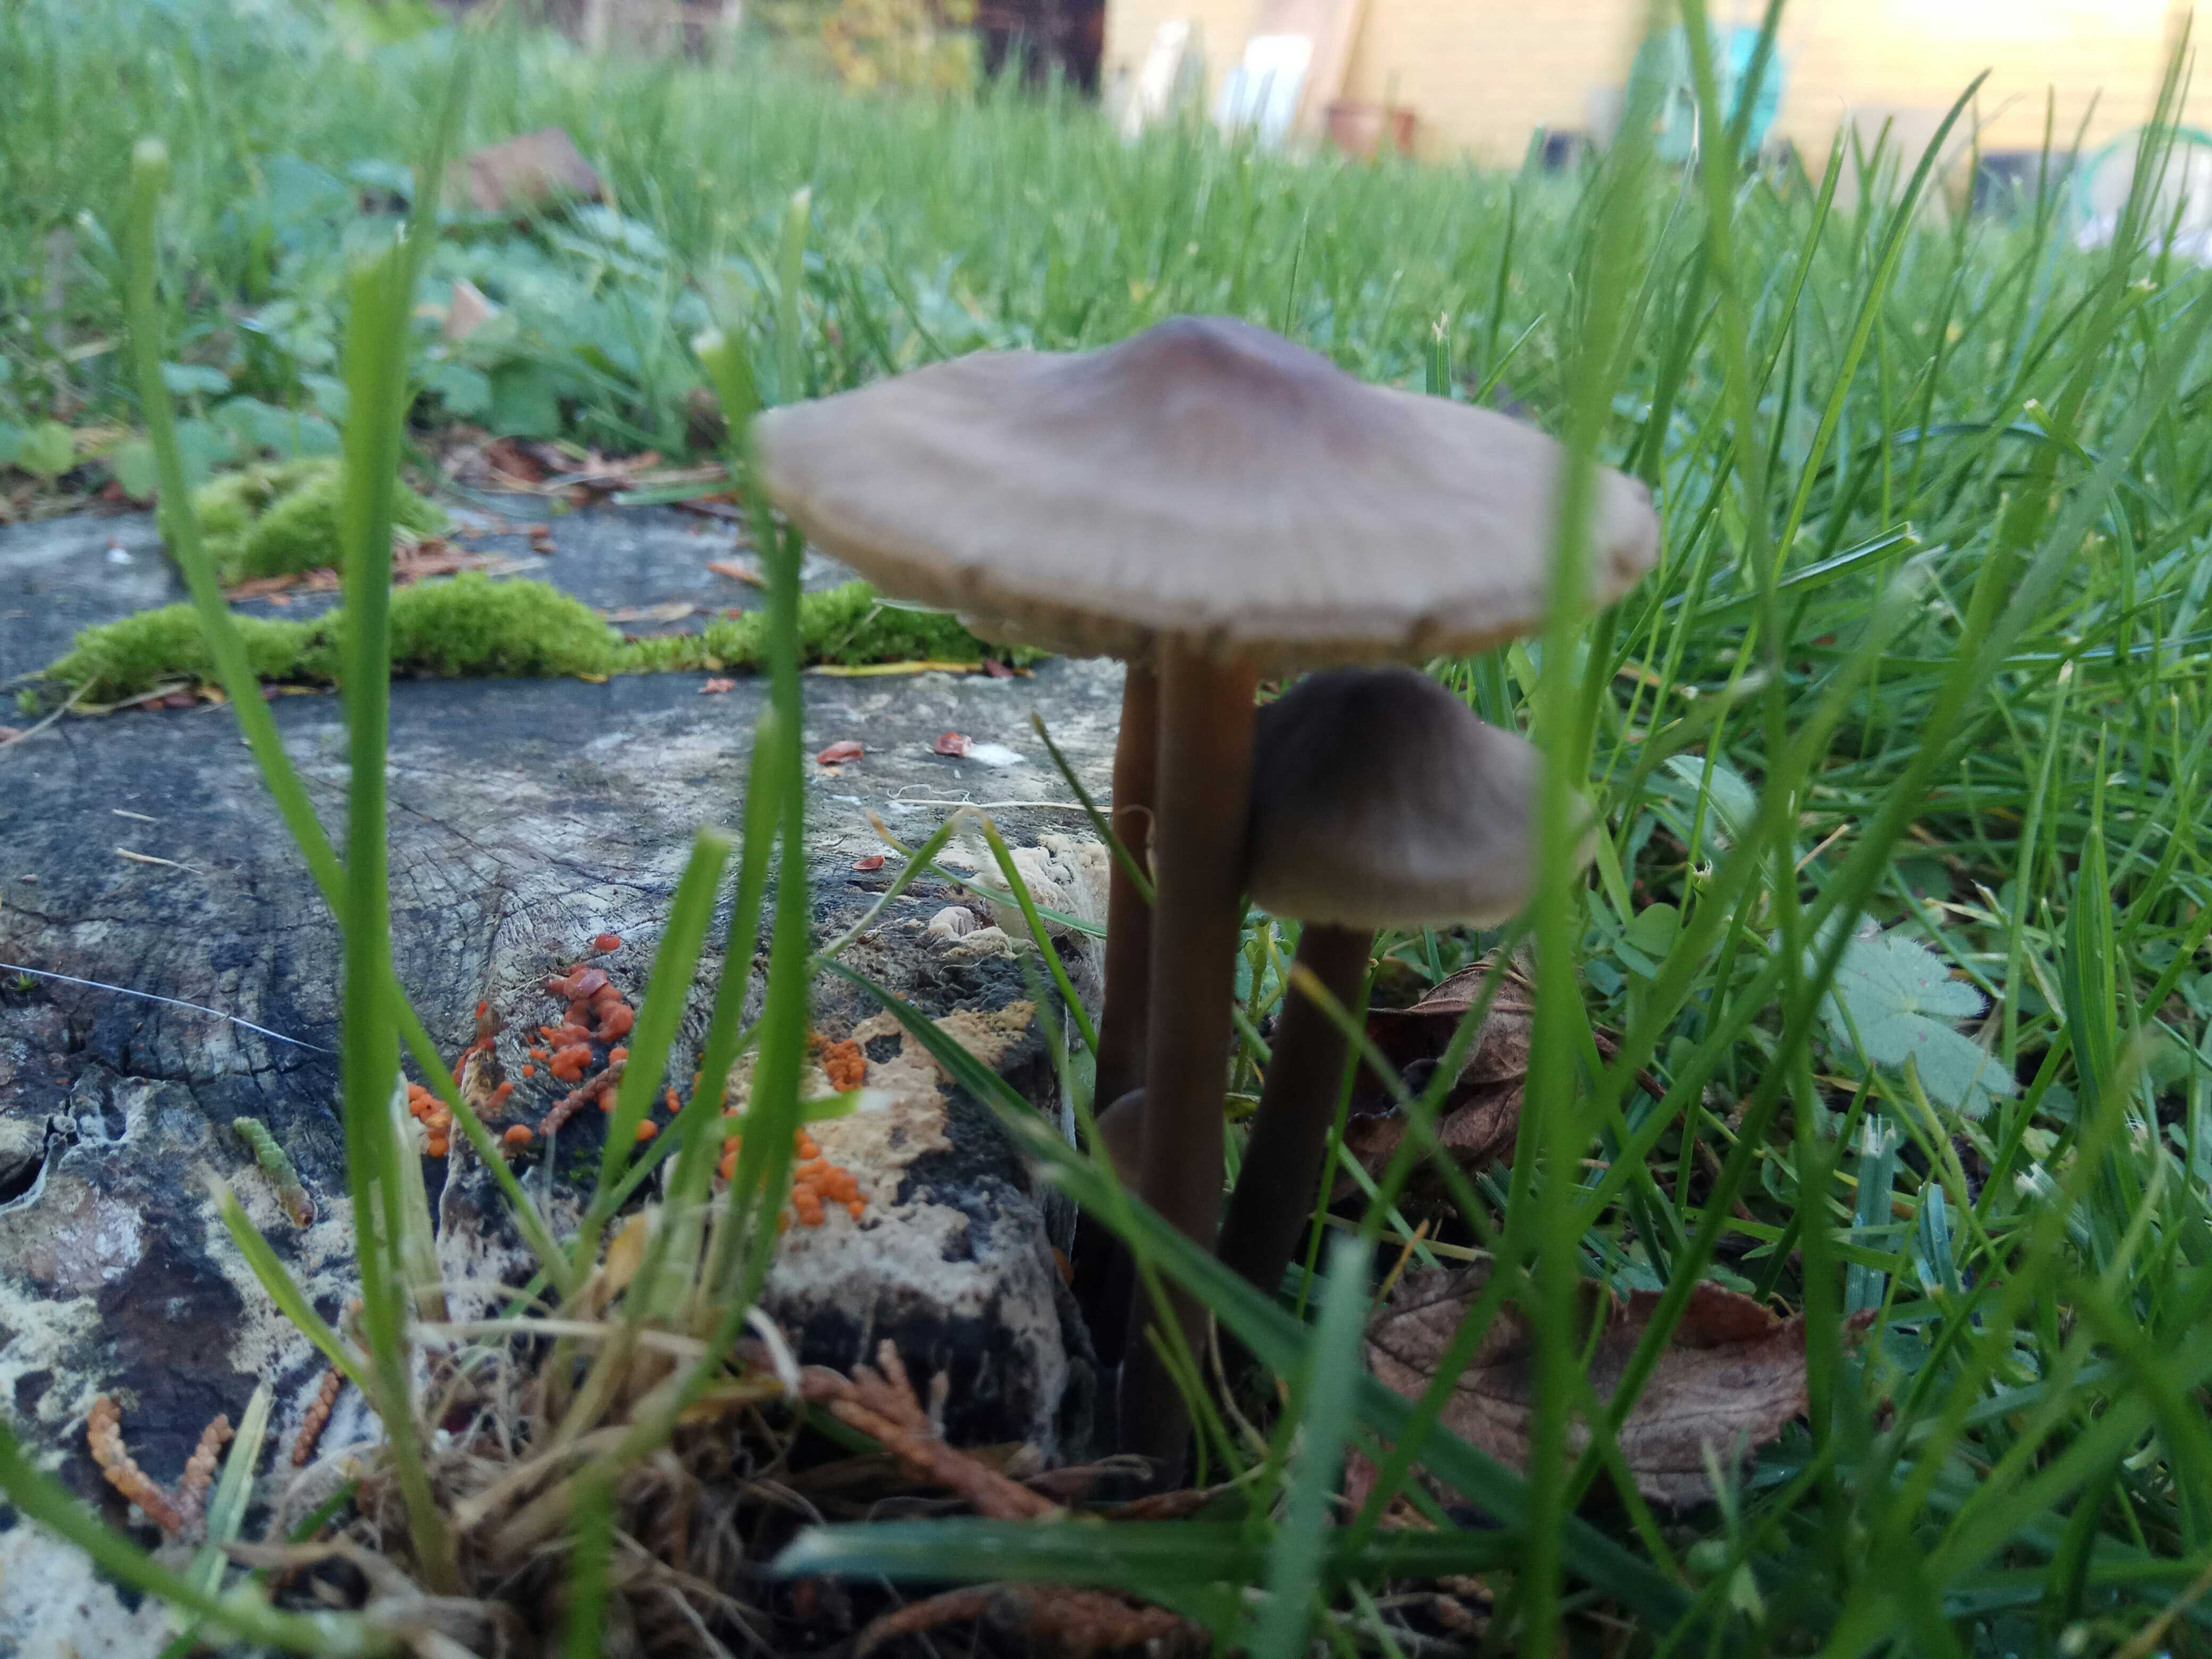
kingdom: Fungi
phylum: Basidiomycota
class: Agaricomycetes
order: Agaricales
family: Mycenaceae
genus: Mycena
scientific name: Mycena
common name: huesvamp
